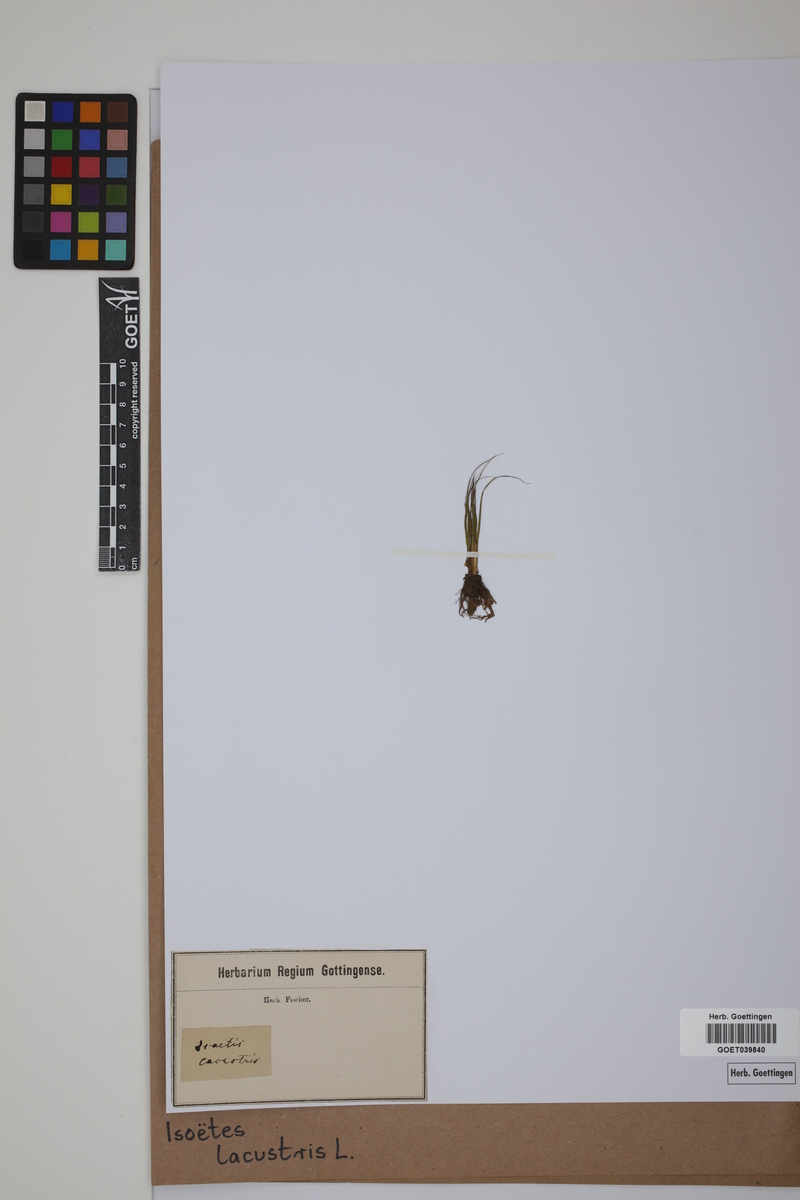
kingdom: Plantae
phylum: Tracheophyta
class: Lycopodiopsida
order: Isoetales
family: Isoetaceae
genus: Isoetes
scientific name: Isoetes lacustris
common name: Common quillwort
